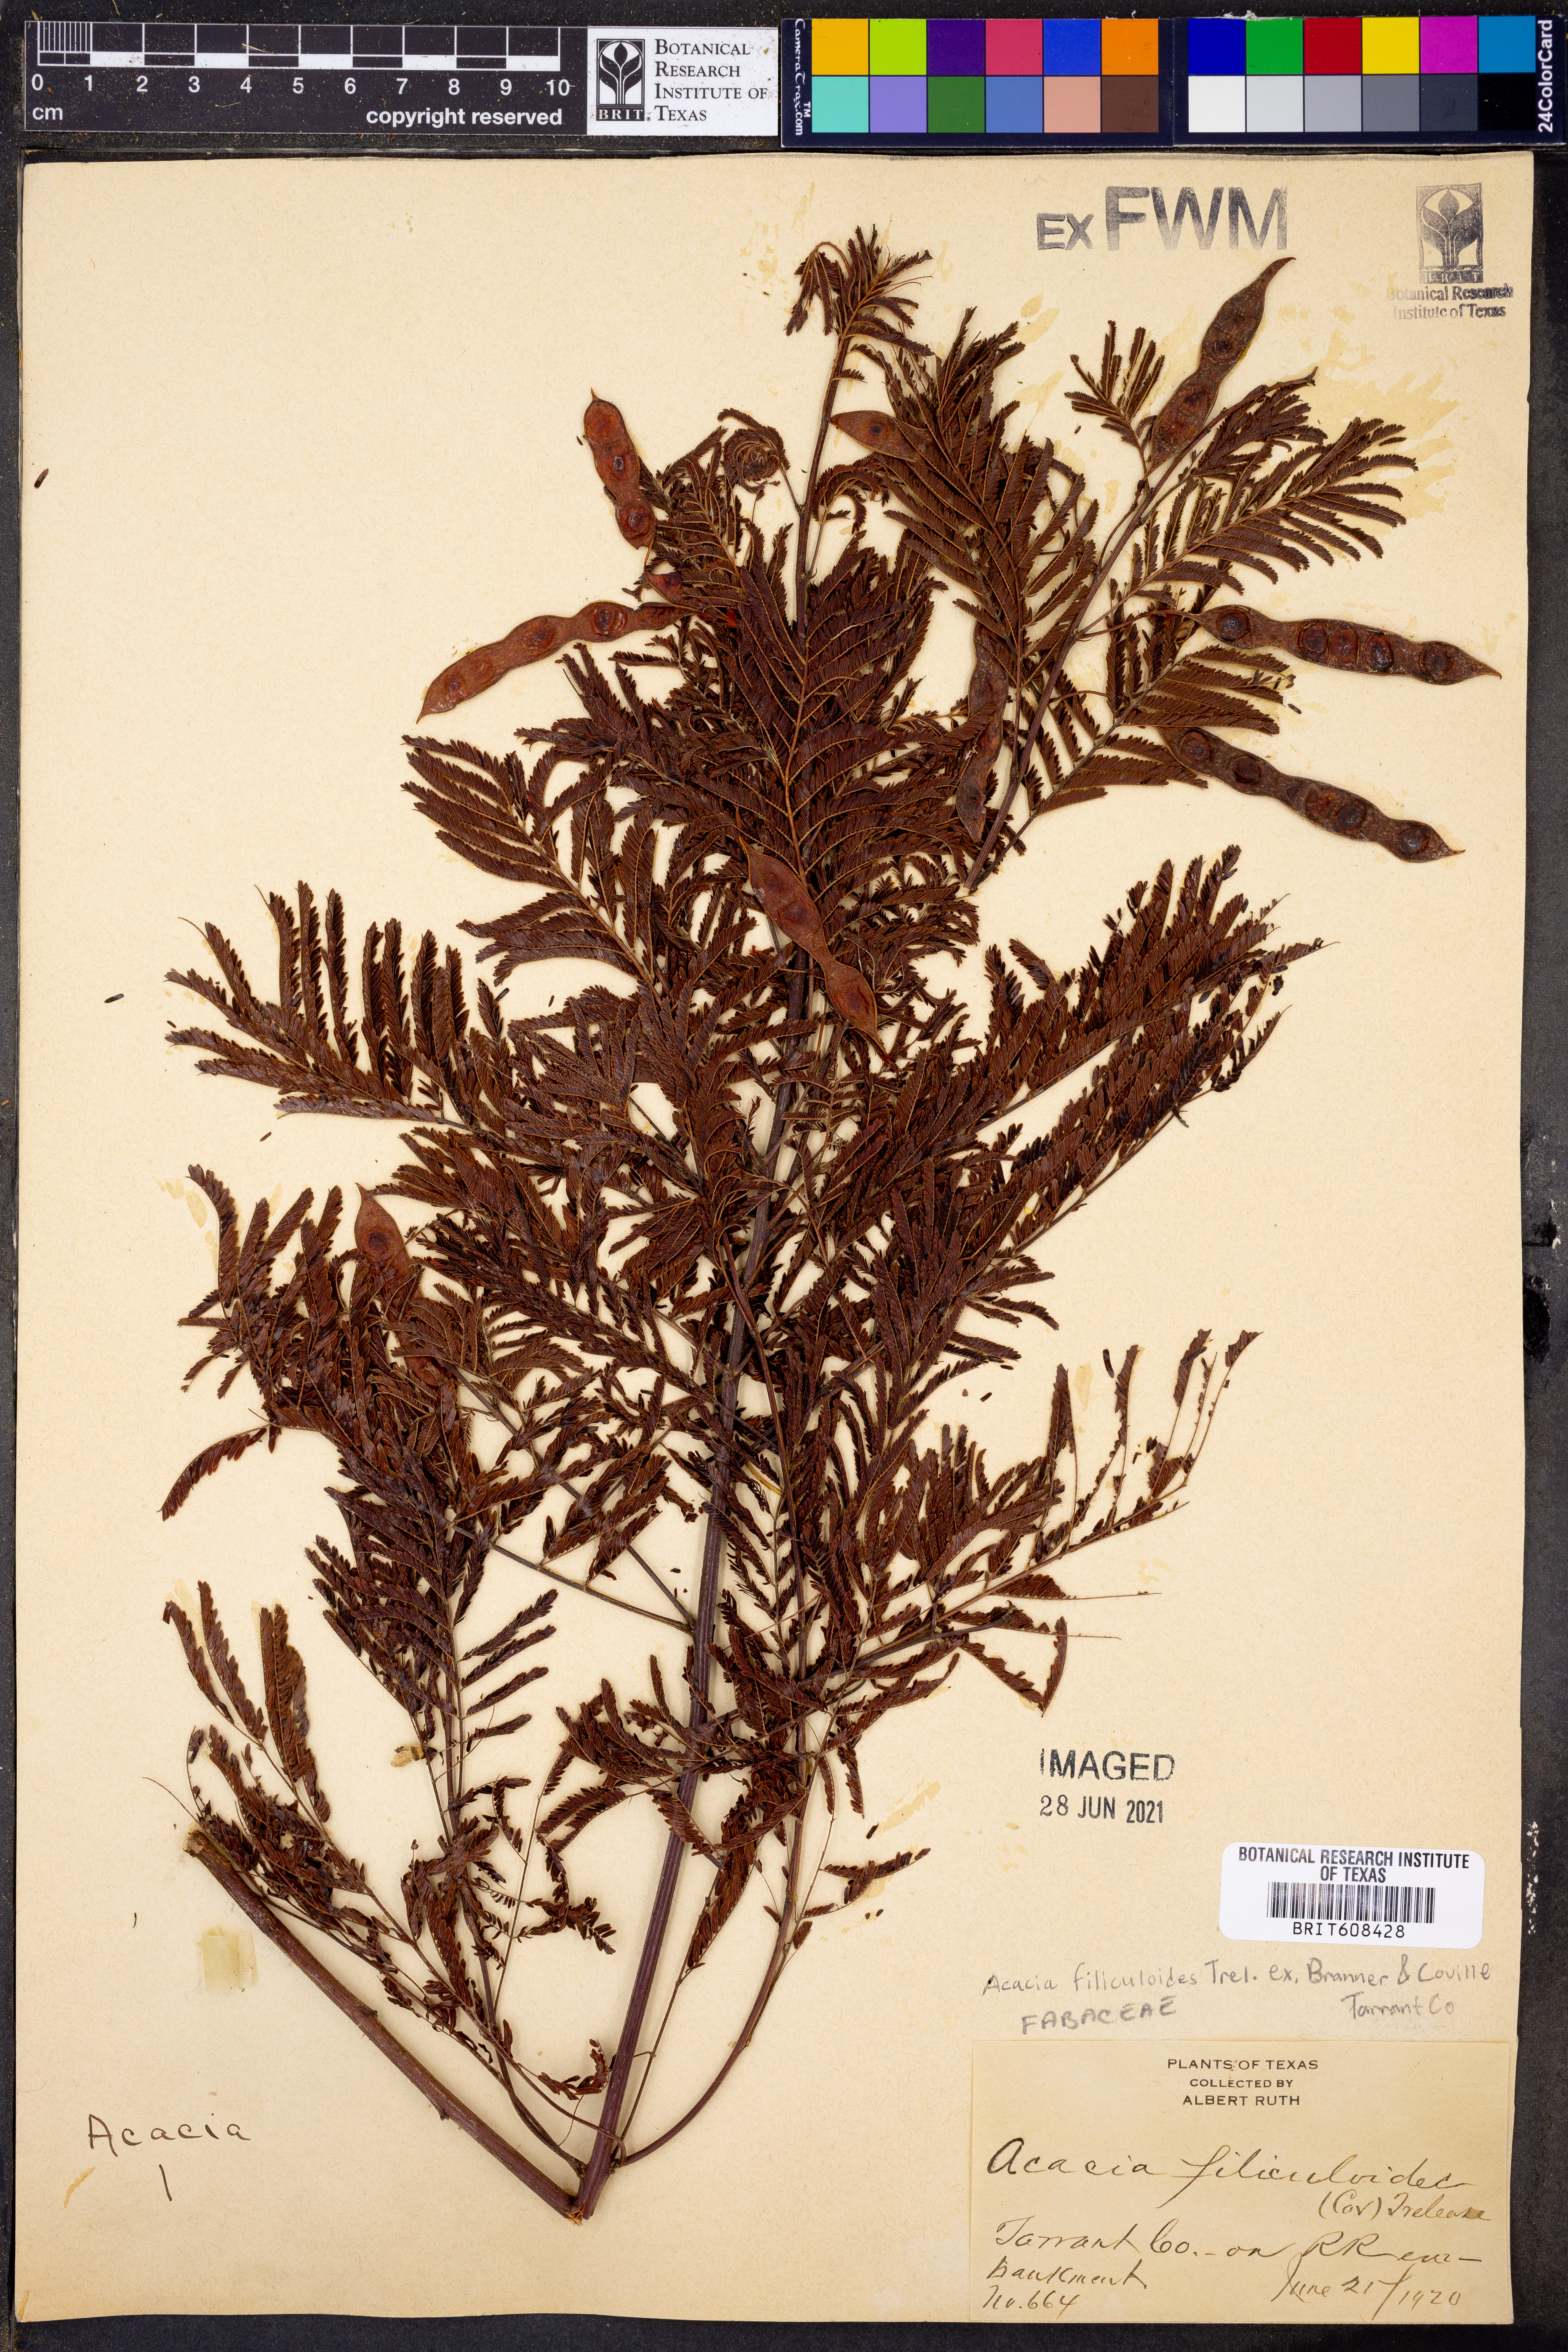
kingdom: Plantae
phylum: Tracheophyta
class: Magnoliopsida
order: Fabales
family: Fabaceae
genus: Acaciella
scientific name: Acaciella angustissima
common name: Prairie acacia
